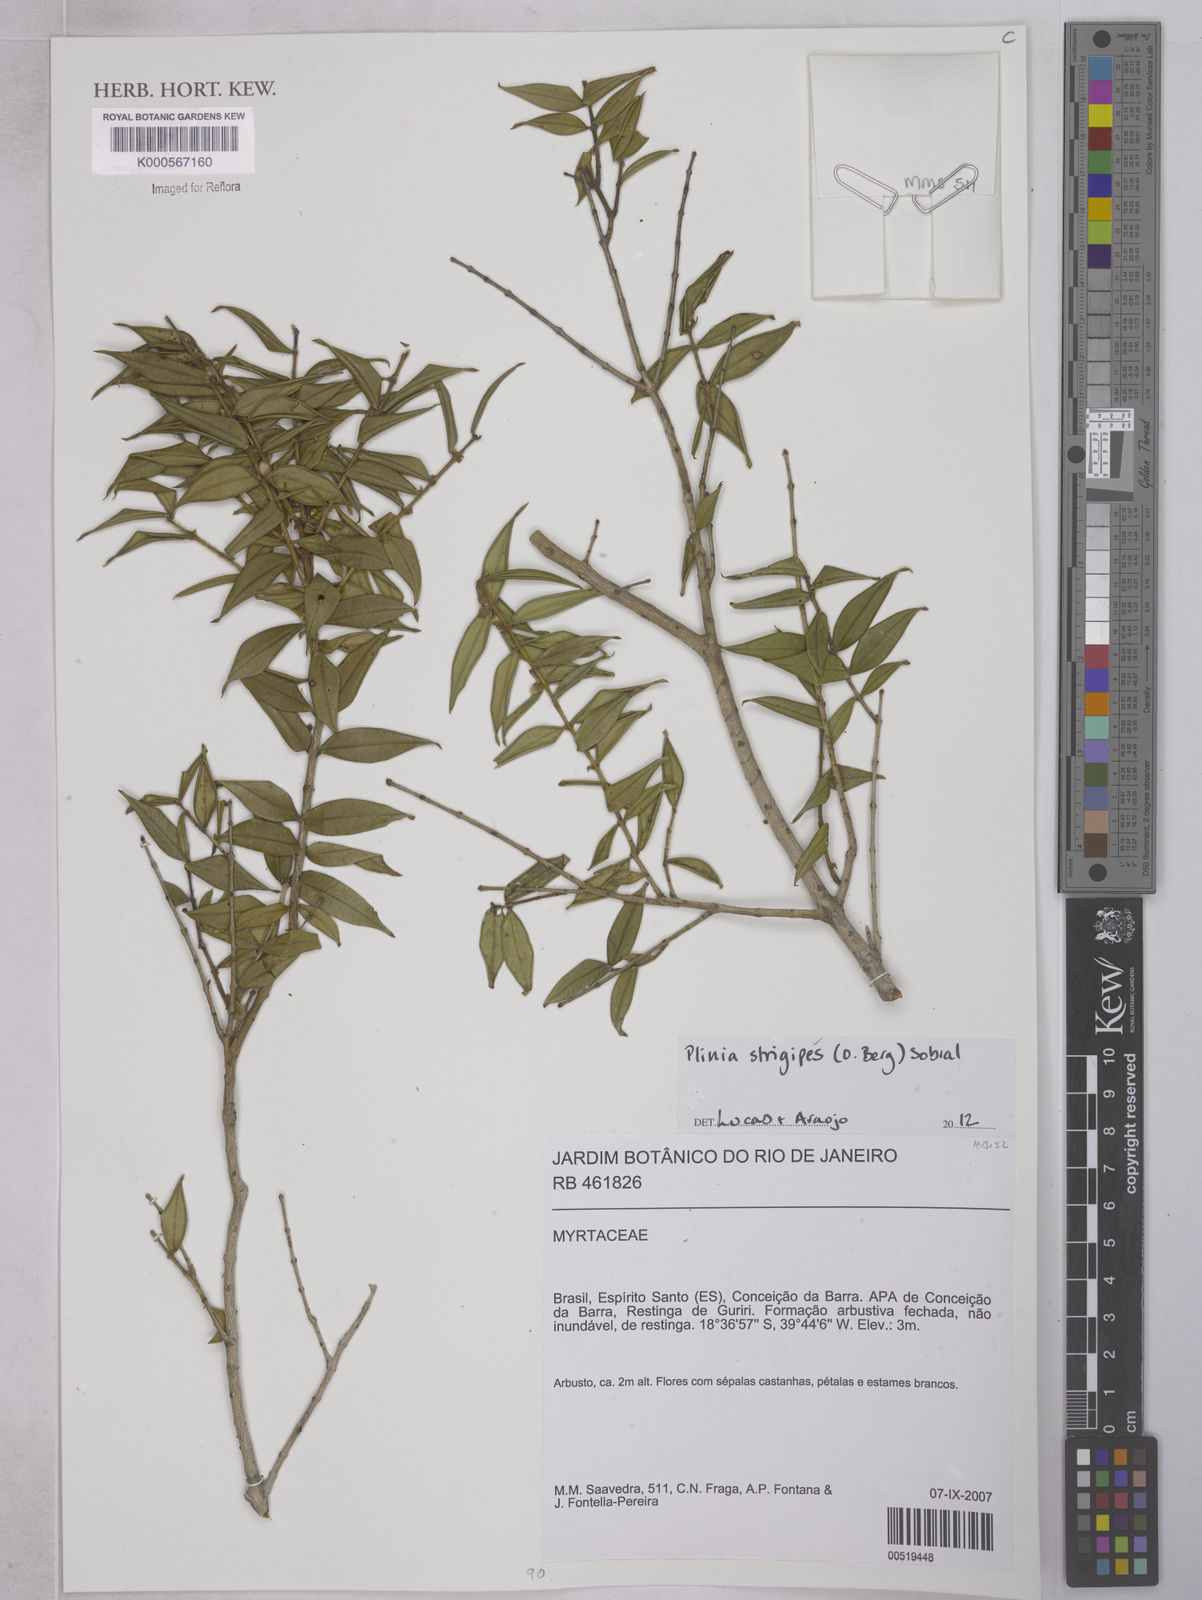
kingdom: Plantae
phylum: Tracheophyta
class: Magnoliopsida
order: Myrtales
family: Myrtaceae
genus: Myrciaria
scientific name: Myrciaria strigipes
